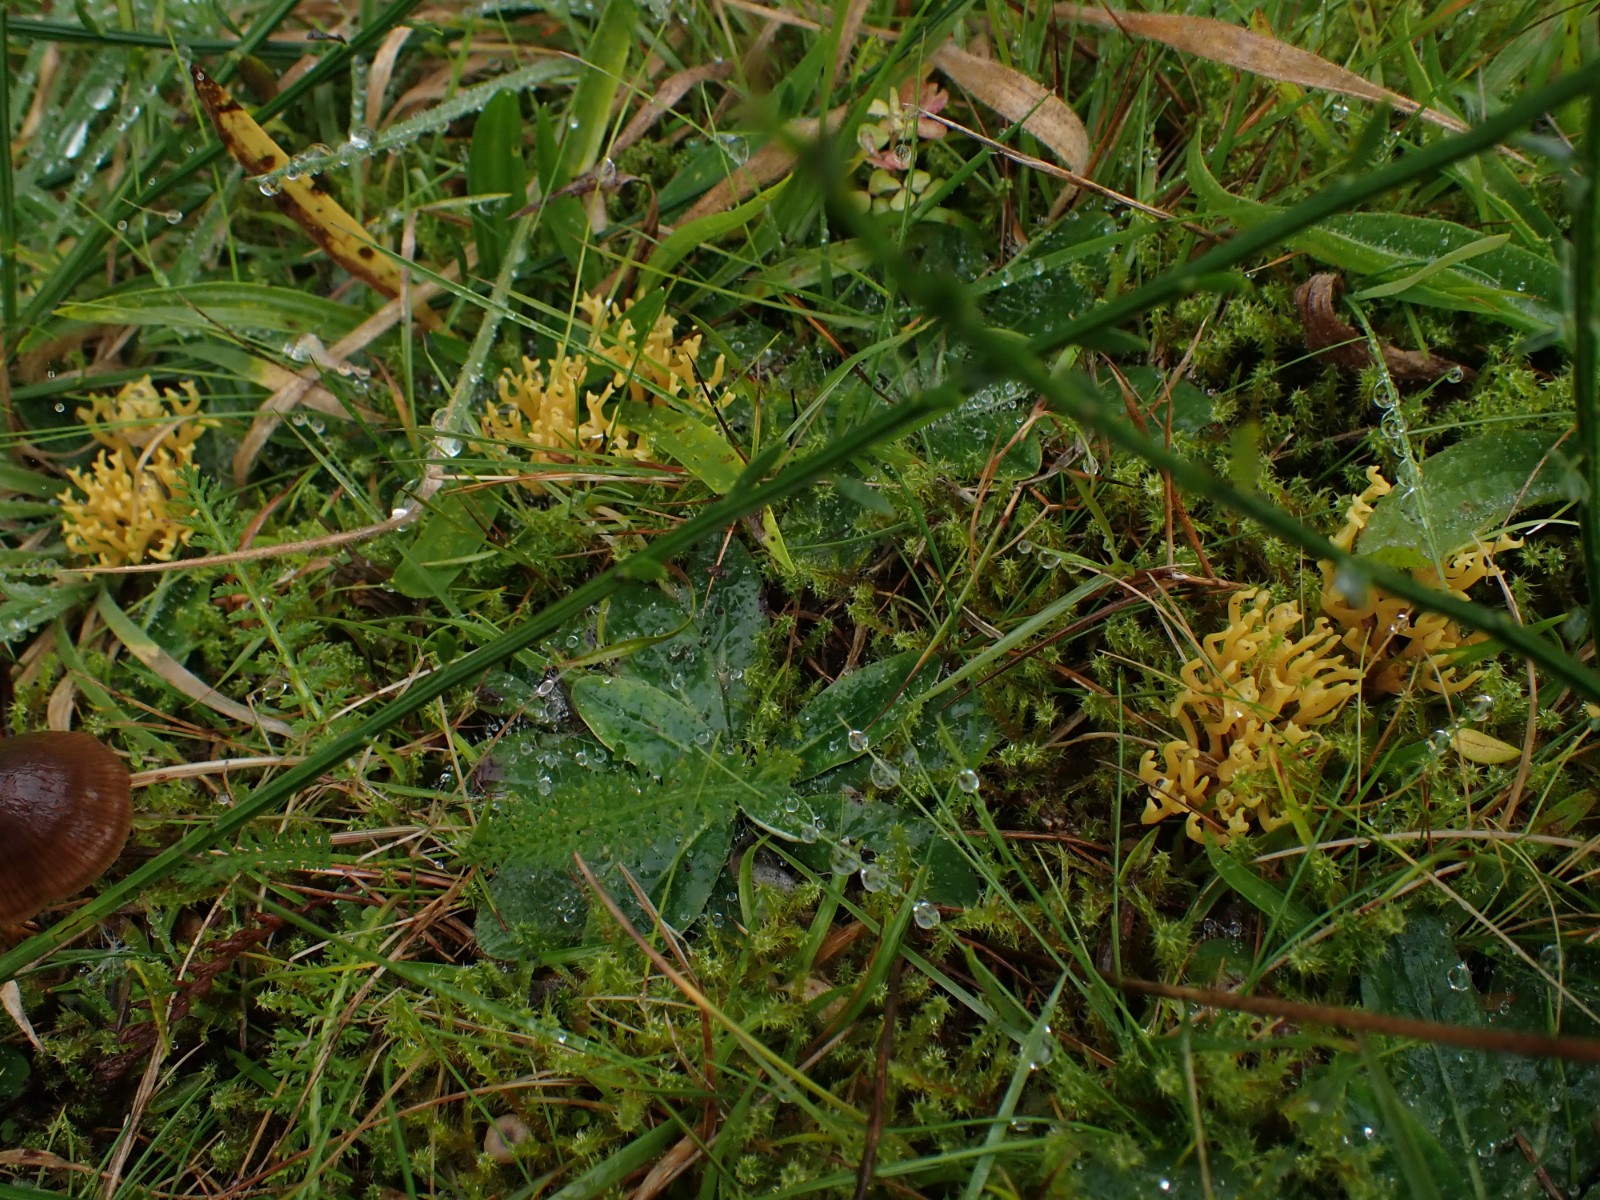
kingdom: Fungi
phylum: Basidiomycota
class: Agaricomycetes
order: Agaricales
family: Clavariaceae
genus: Clavulinopsis
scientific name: Clavulinopsis corniculata
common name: eng-køllesvamp
